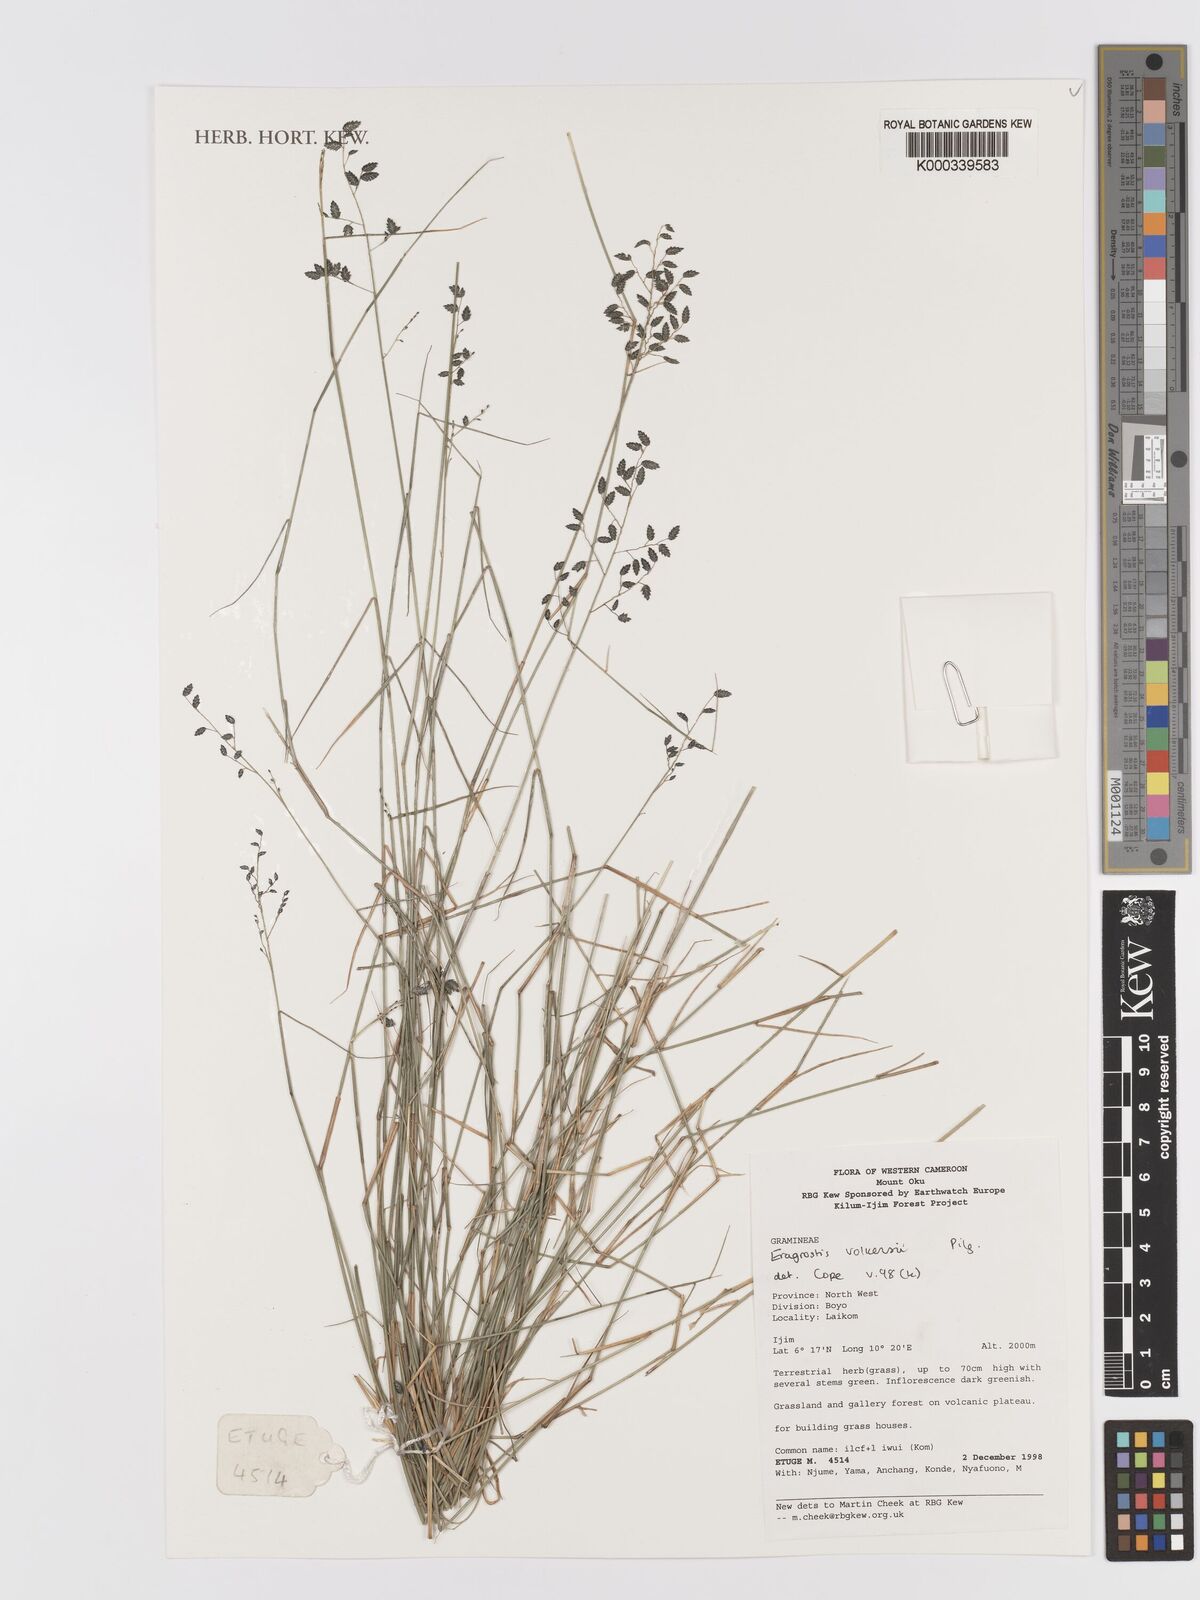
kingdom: Plantae
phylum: Tracheophyta
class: Liliopsida
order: Poales
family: Poaceae
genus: Eragrostis
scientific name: Eragrostis volkensii
